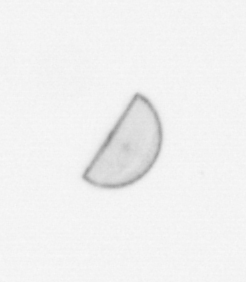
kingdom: Chromista
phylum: Ochrophyta
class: Bacillariophyceae
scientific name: Bacillariophyceae
